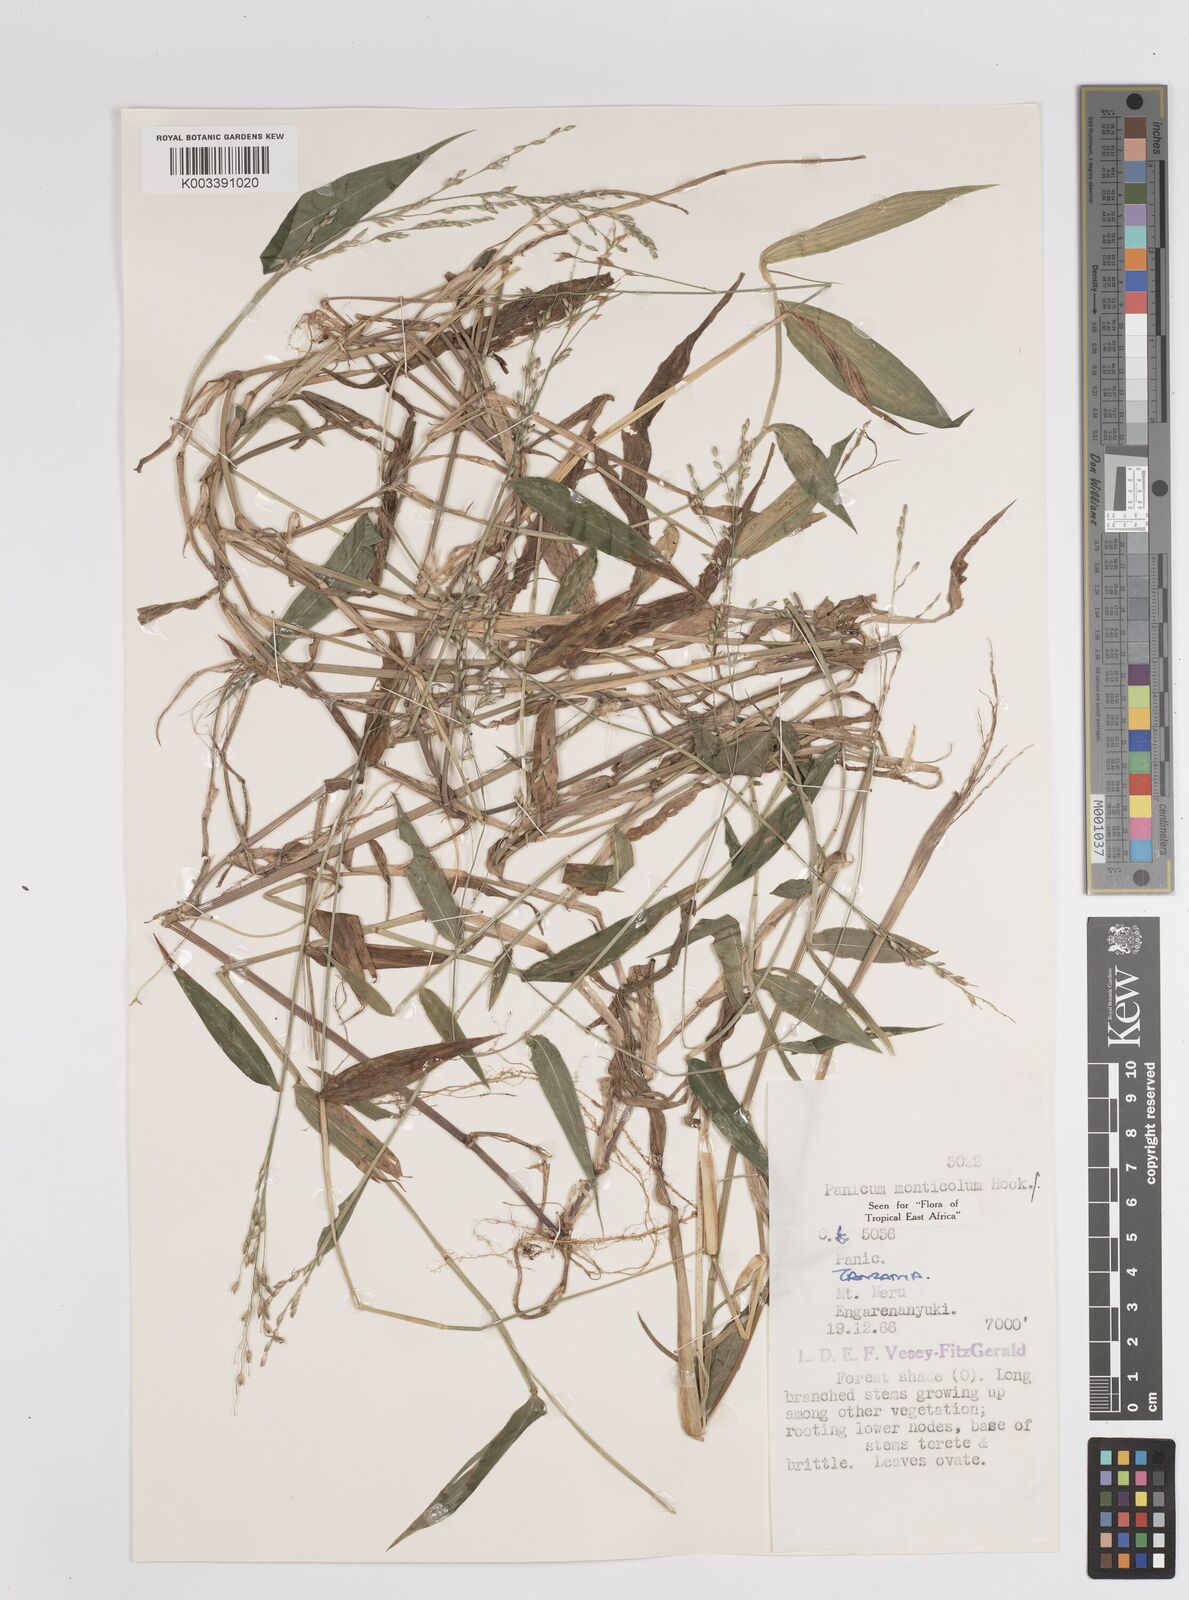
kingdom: Plantae
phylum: Tracheophyta
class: Liliopsida
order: Poales
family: Poaceae
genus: Panicum
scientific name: Panicum monticola
